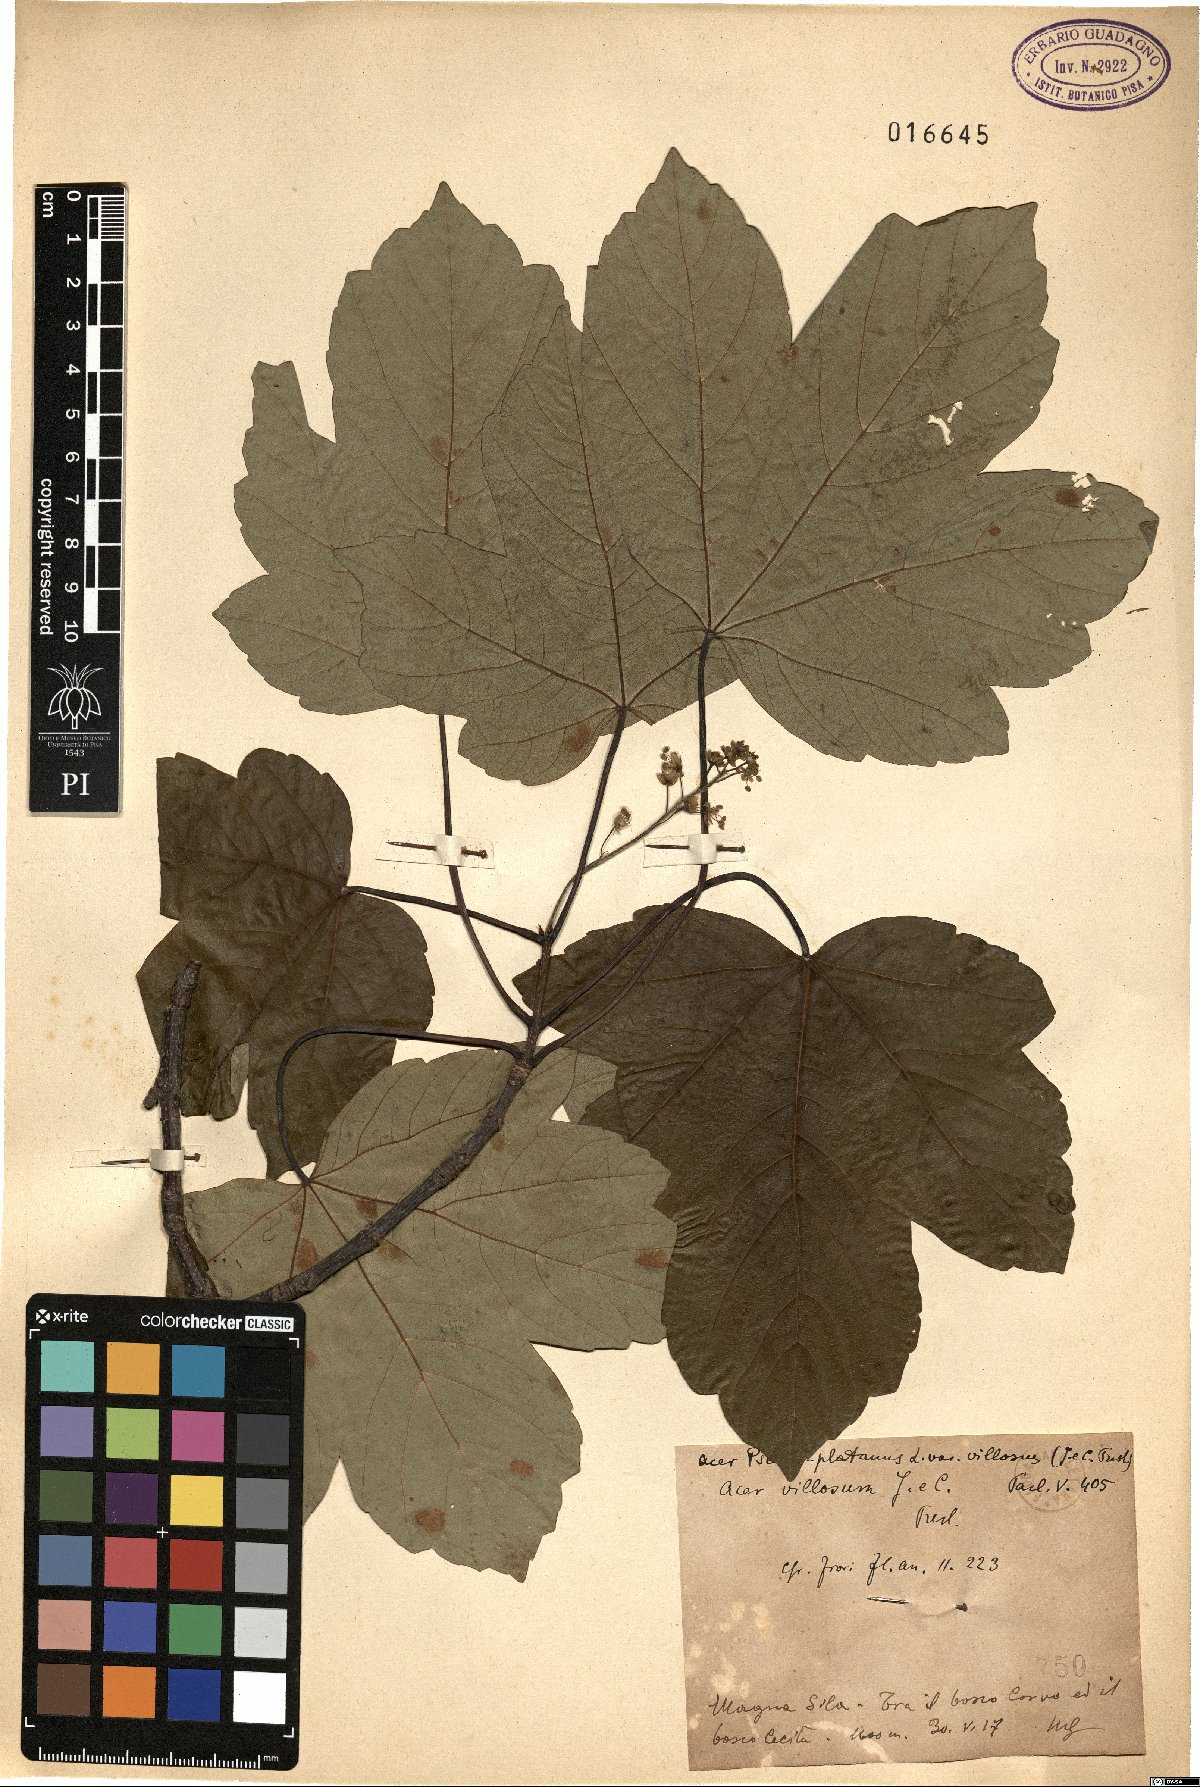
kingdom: Plantae
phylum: Tracheophyta
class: Magnoliopsida
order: Sapindales
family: Sapindaceae
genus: Acer
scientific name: Acer pseudoplatanus
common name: Sycamore
